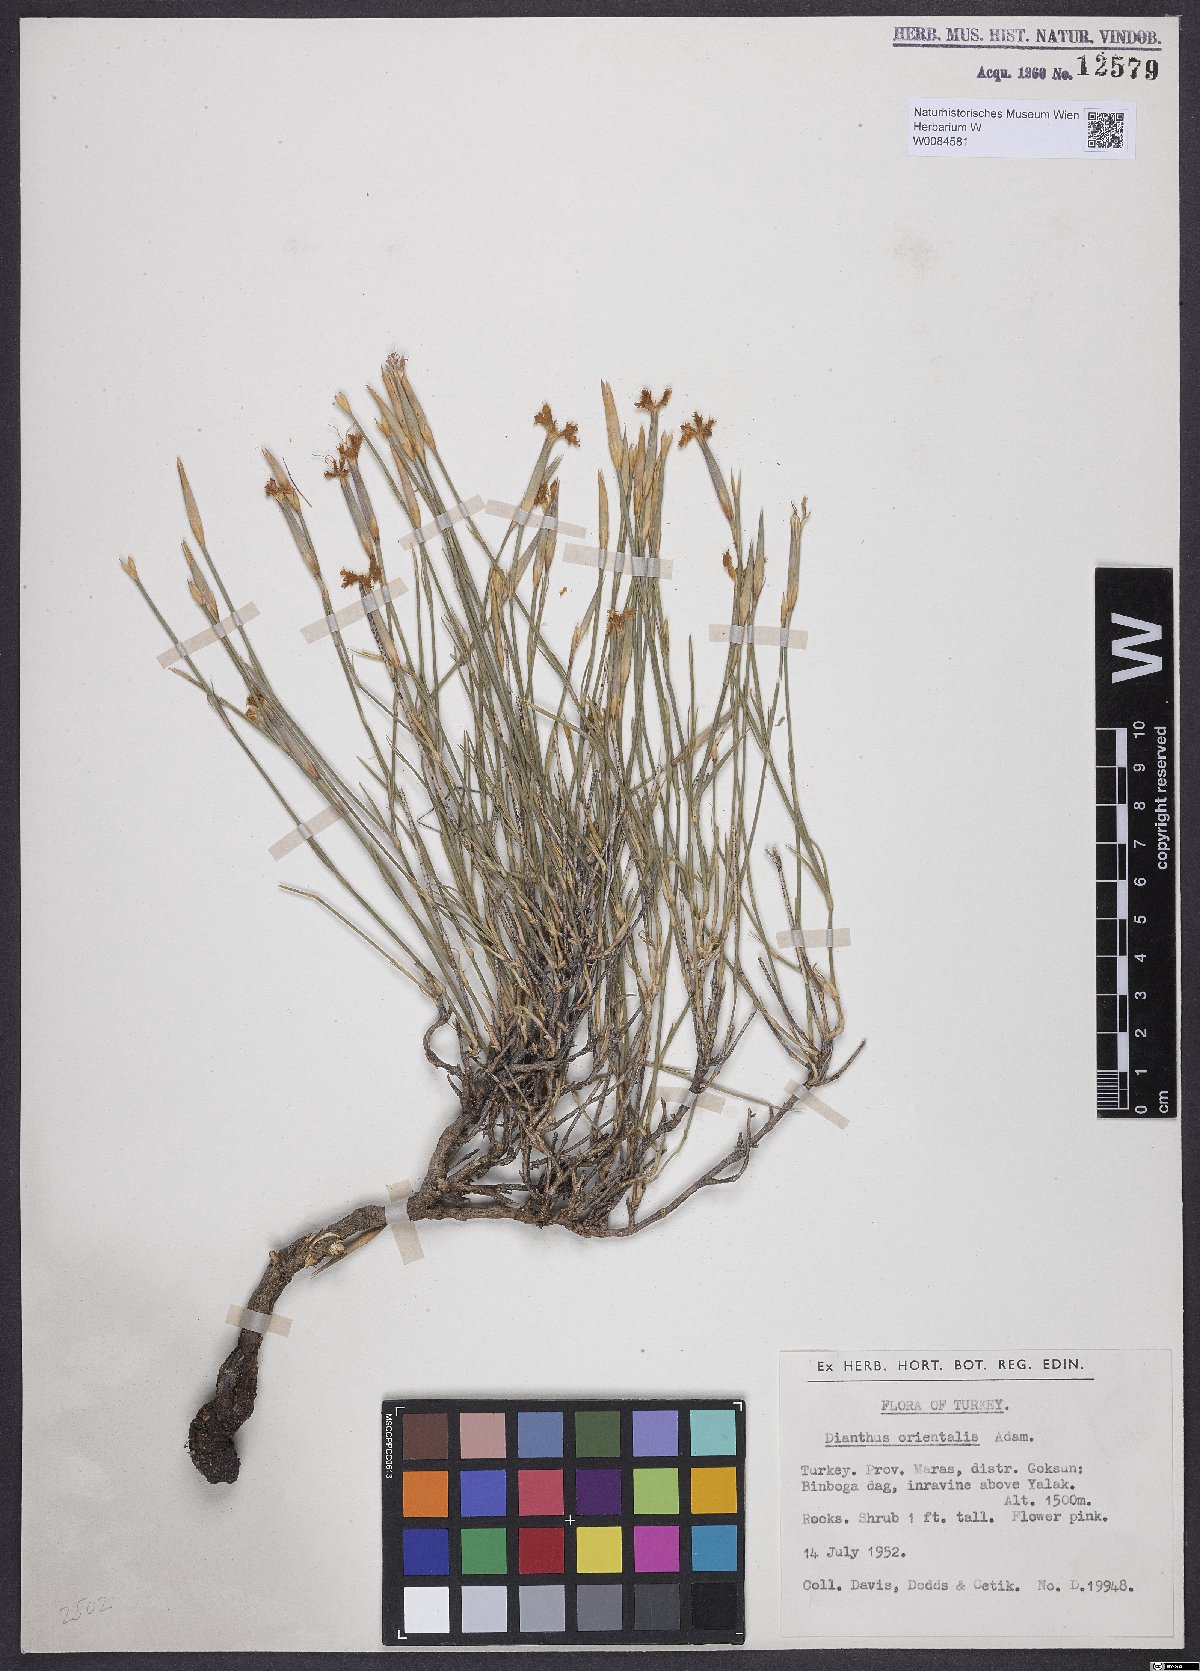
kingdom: Plantae
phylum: Tracheophyta
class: Magnoliopsida
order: Caryophyllales
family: Caryophyllaceae
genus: Dianthus
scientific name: Dianthus orientalis
